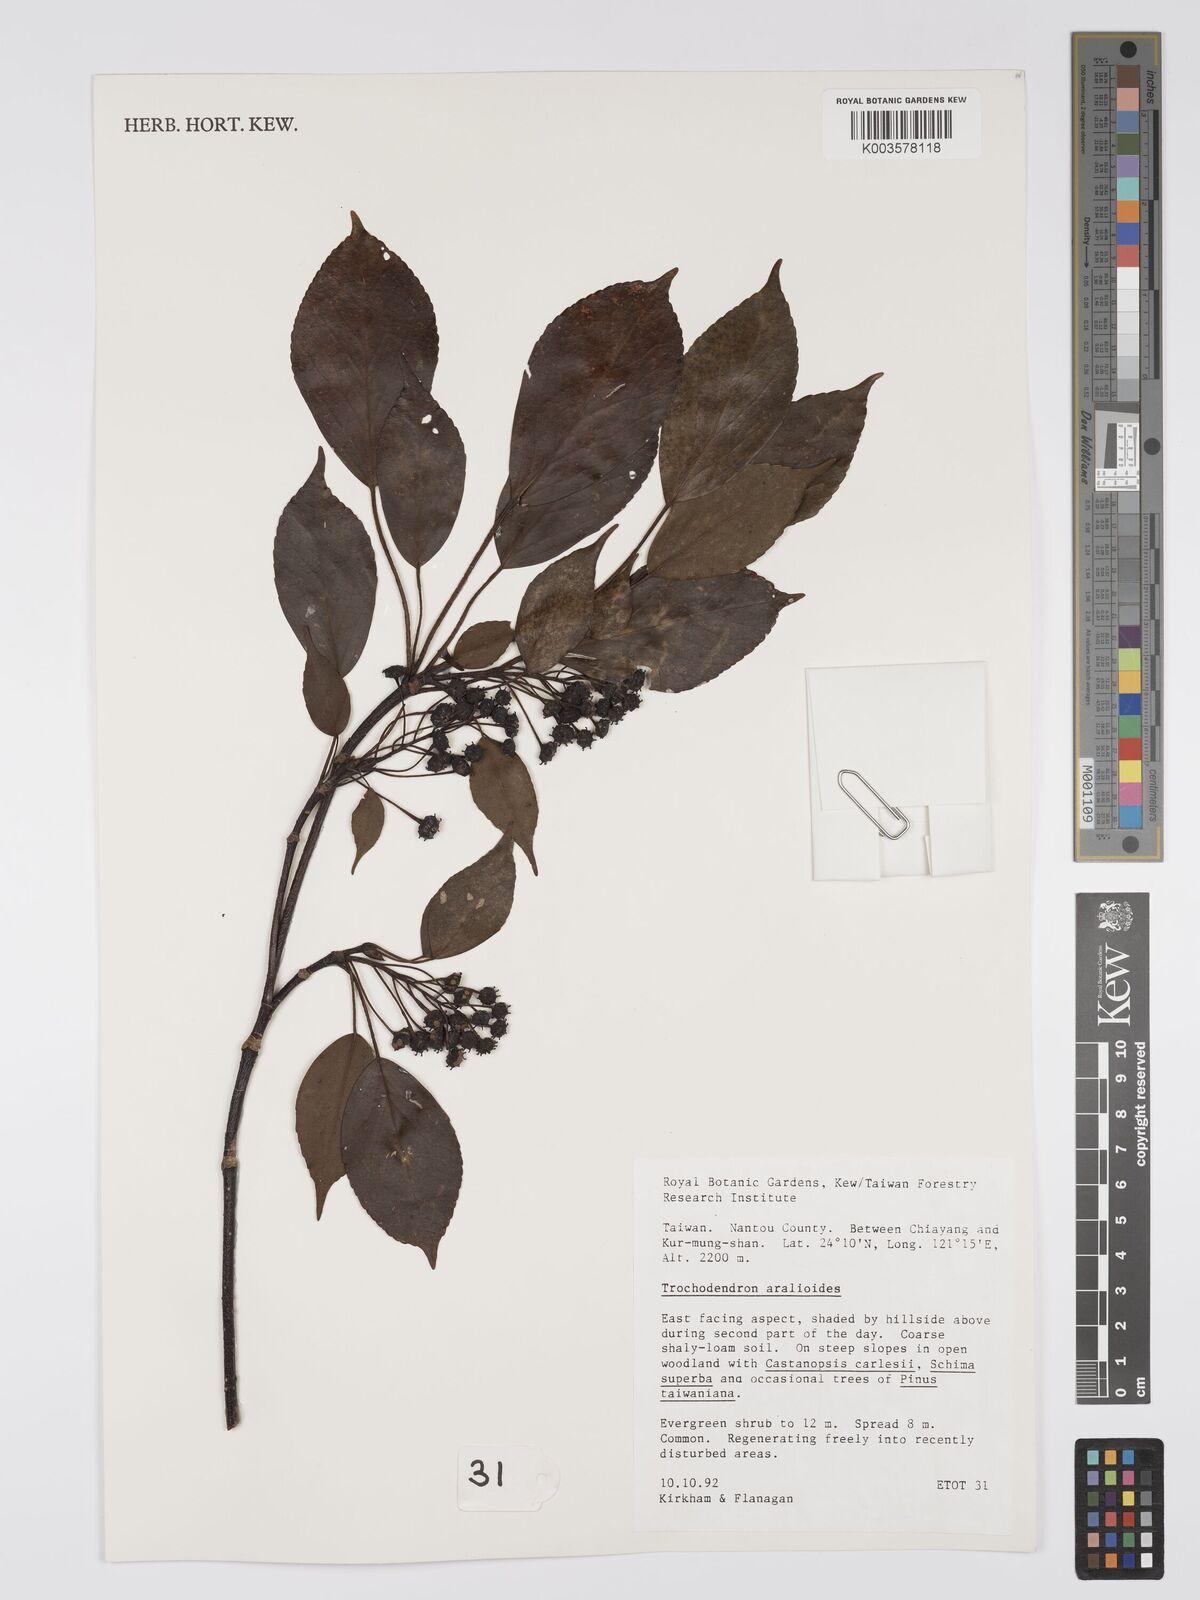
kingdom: Plantae
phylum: Tracheophyta
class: Magnoliopsida
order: Trochodendrales
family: Trochodendraceae
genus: Trochodendron
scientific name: Trochodendron aralioides
